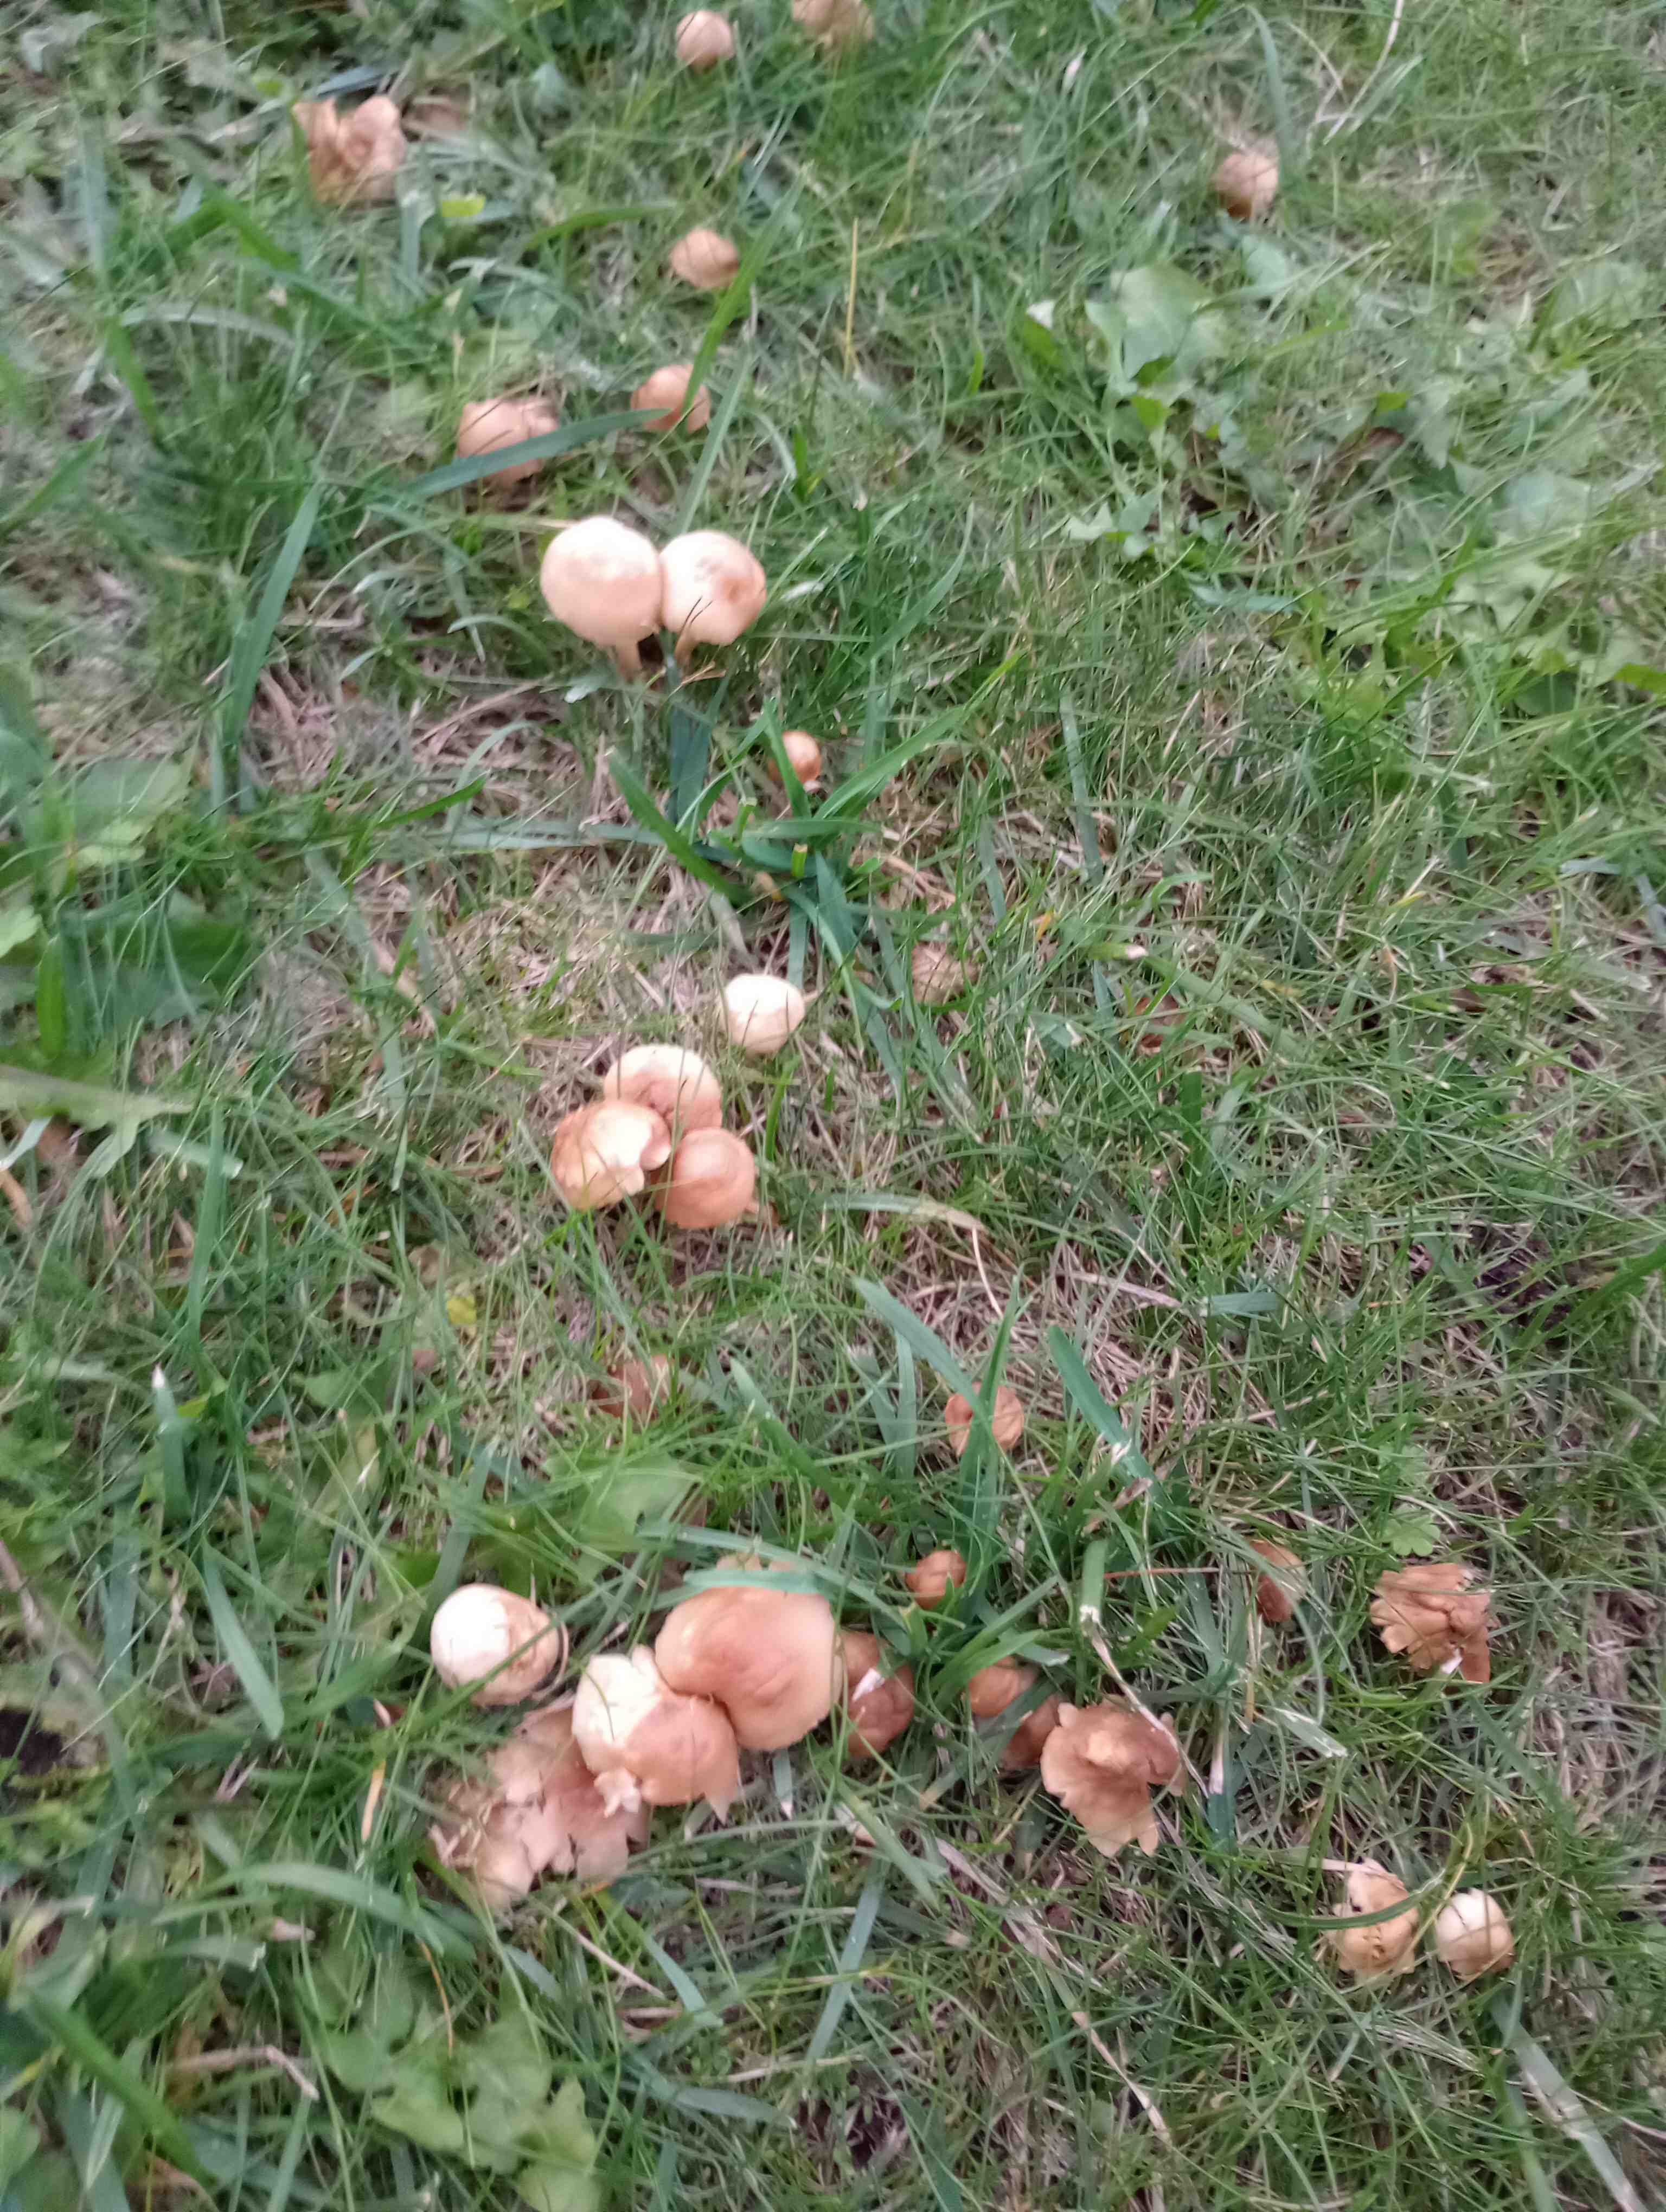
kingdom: Fungi
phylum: Basidiomycota
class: Agaricomycetes
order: Agaricales
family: Marasmiaceae
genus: Marasmius
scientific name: Marasmius oreades
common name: elledans-bruskhat
